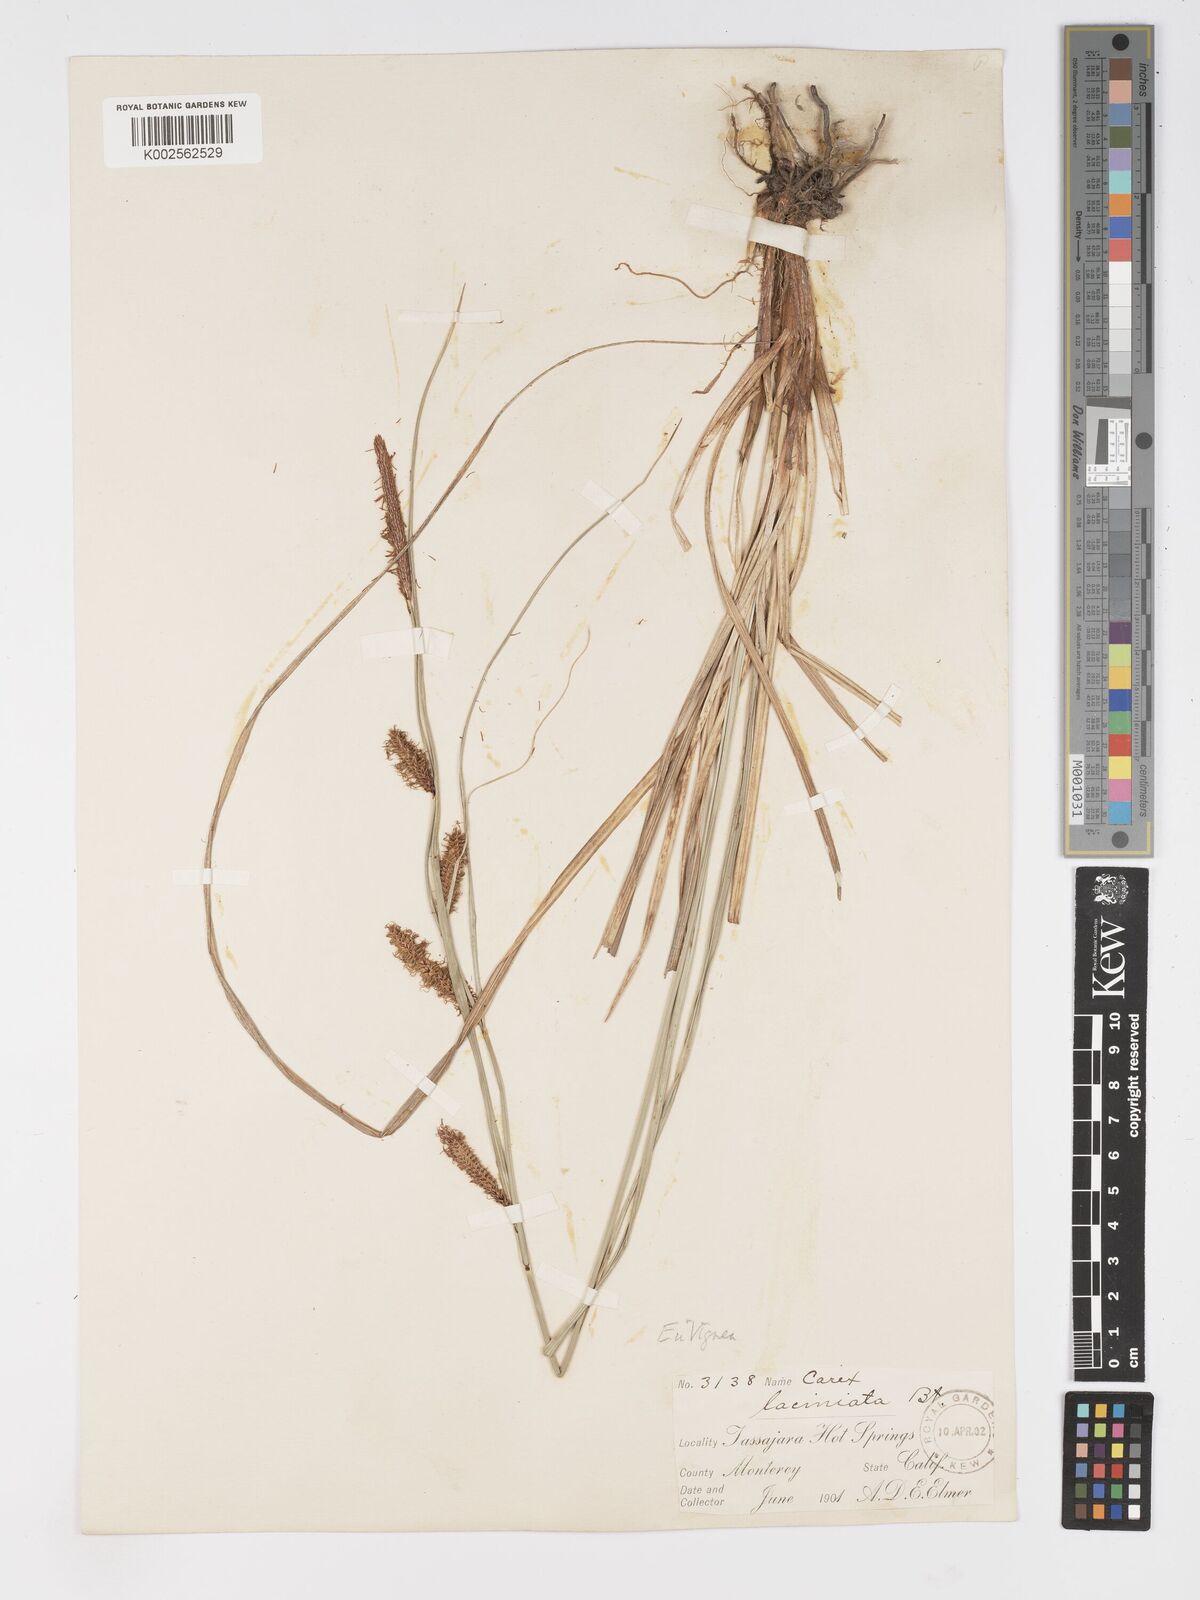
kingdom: Plantae
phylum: Tracheophyta
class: Liliopsida
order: Poales
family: Cyperaceae
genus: Carex
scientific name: Carex barbarae
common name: Santa barbara sedge
